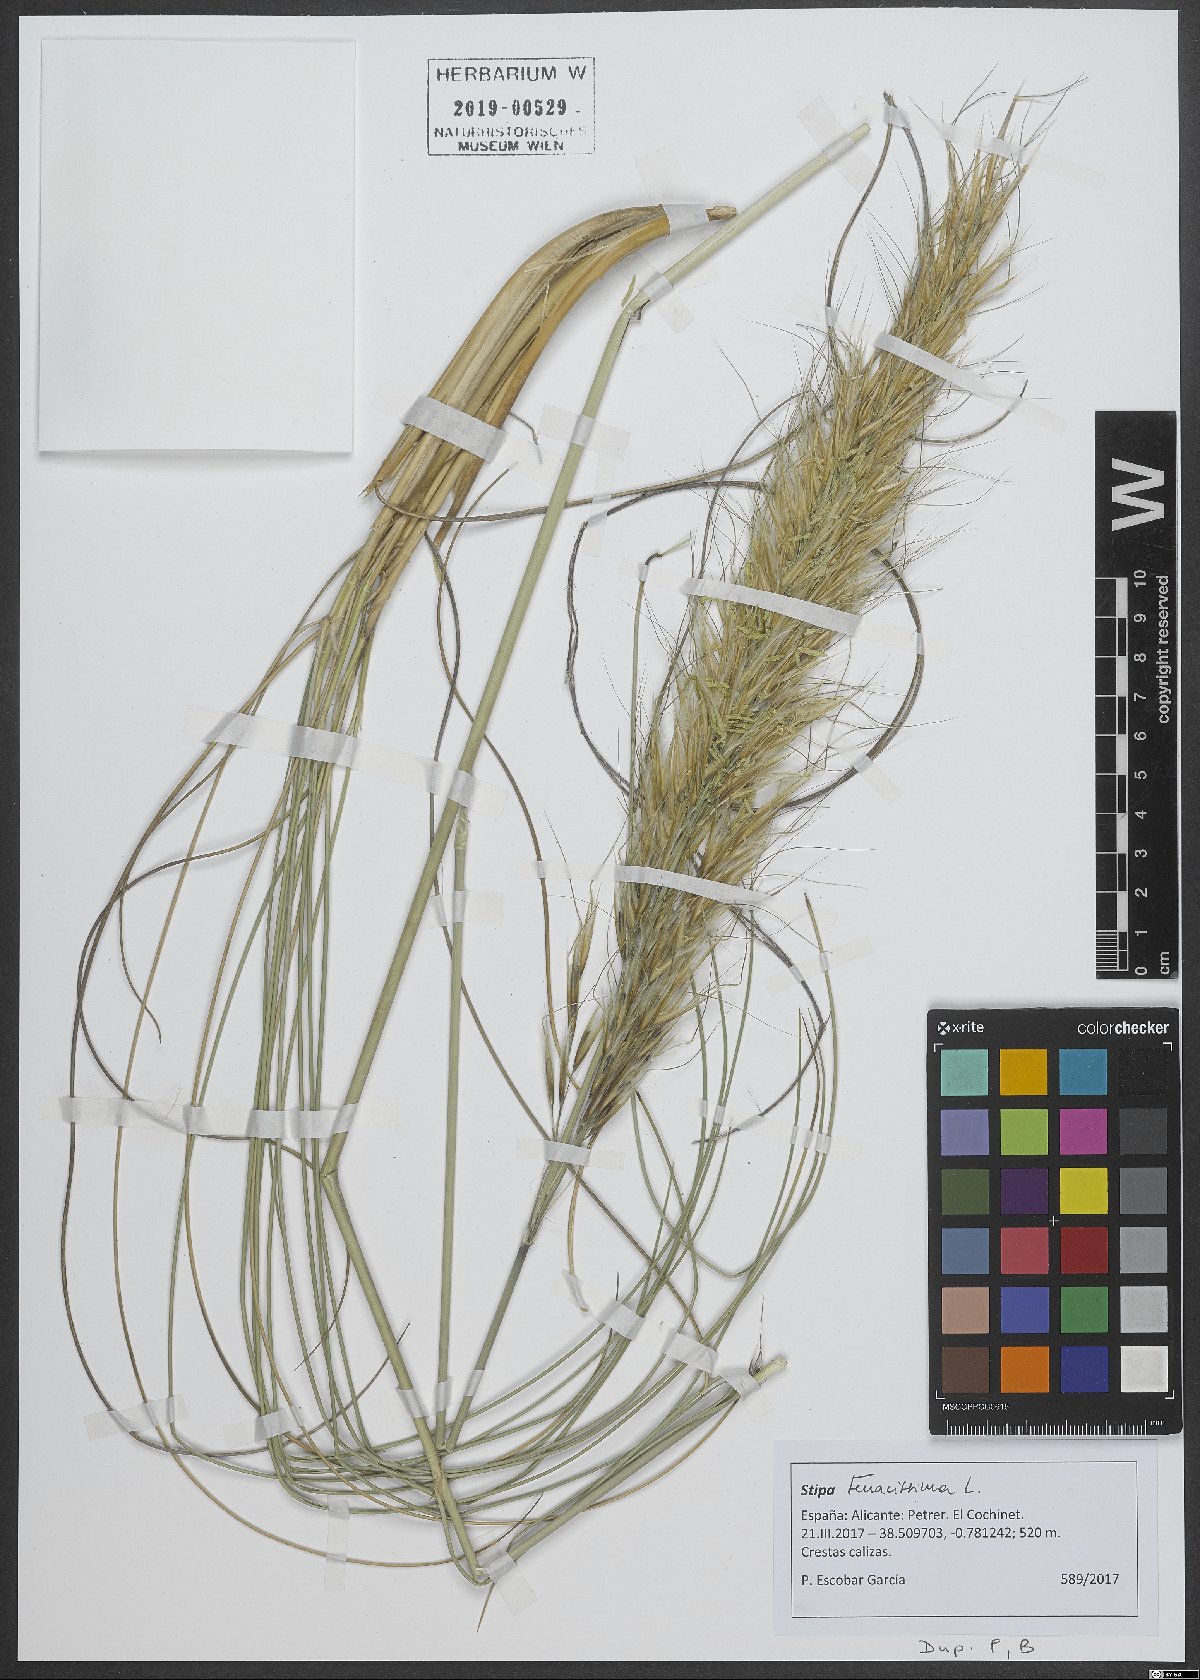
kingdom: Plantae
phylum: Tracheophyta
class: Liliopsida
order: Poales
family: Poaceae
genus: Macrochloa
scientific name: Macrochloa tenacissima
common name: Alfa grass
